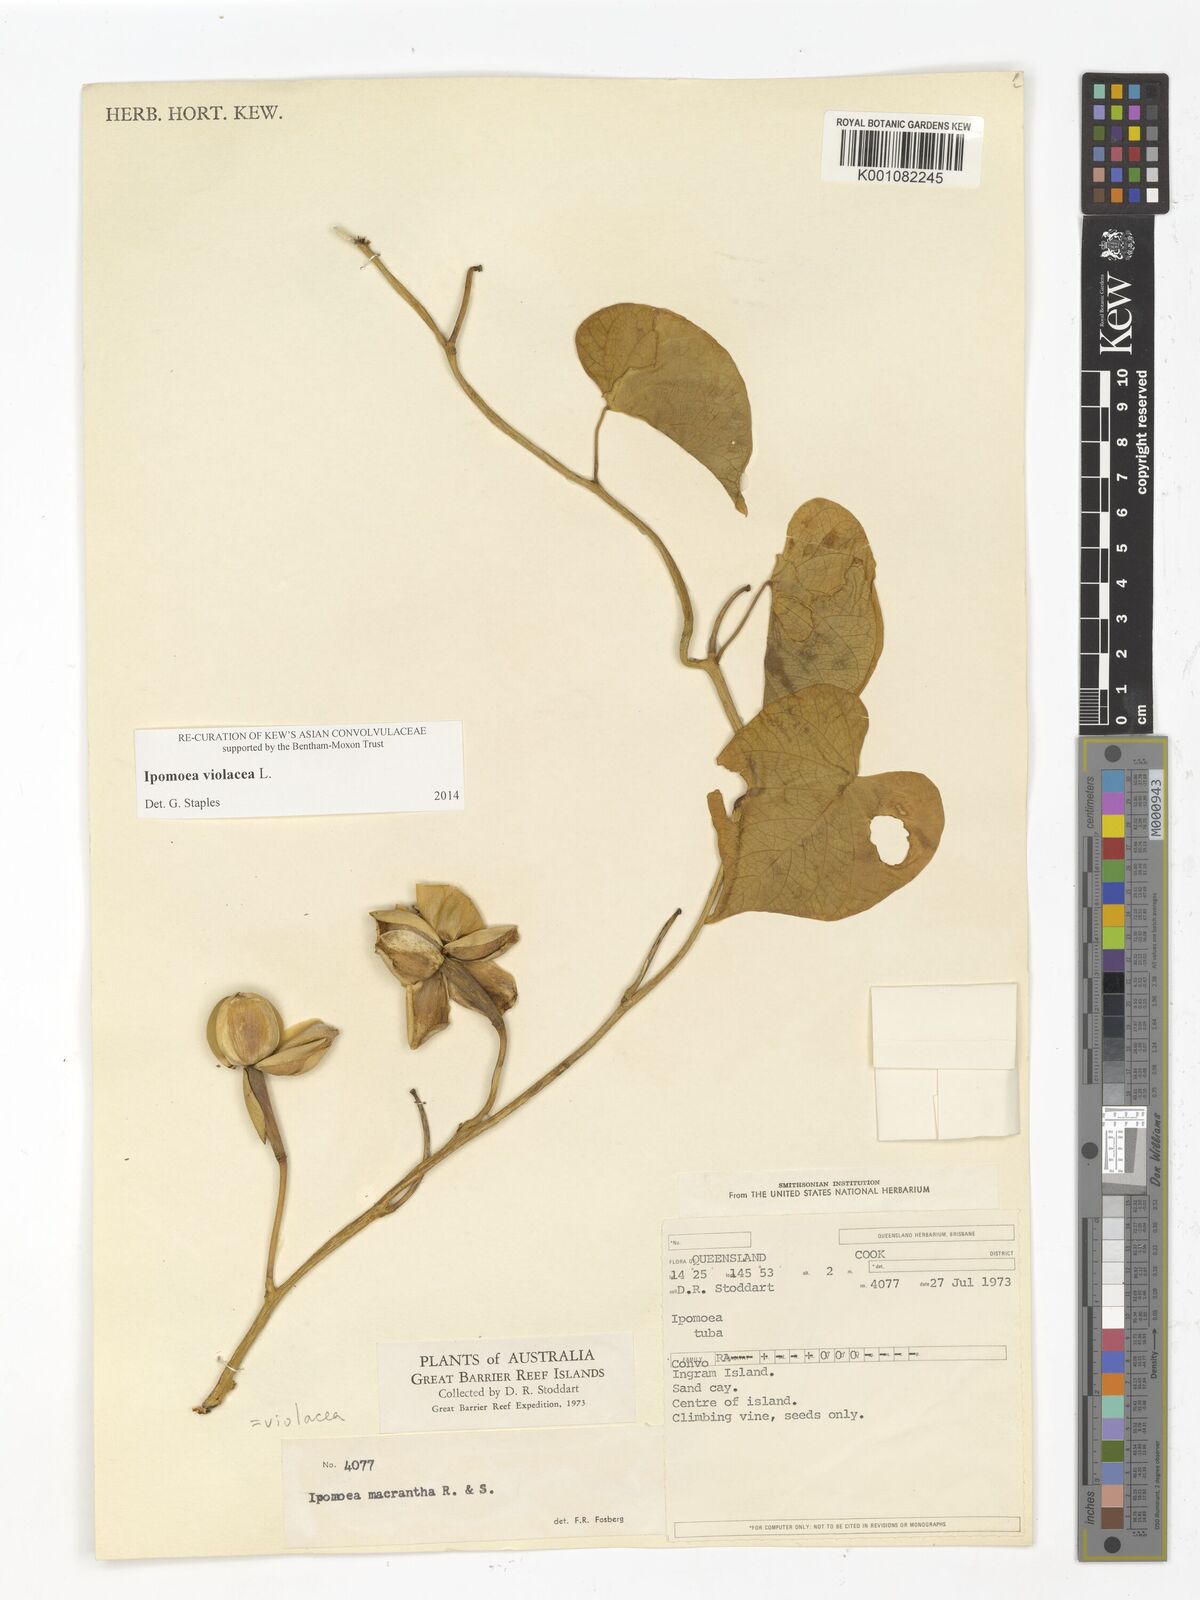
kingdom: Plantae
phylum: Tracheophyta
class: Magnoliopsida
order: Solanales
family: Convolvulaceae
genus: Ipomoea
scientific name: Ipomoea violacea
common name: Beach moonflower
